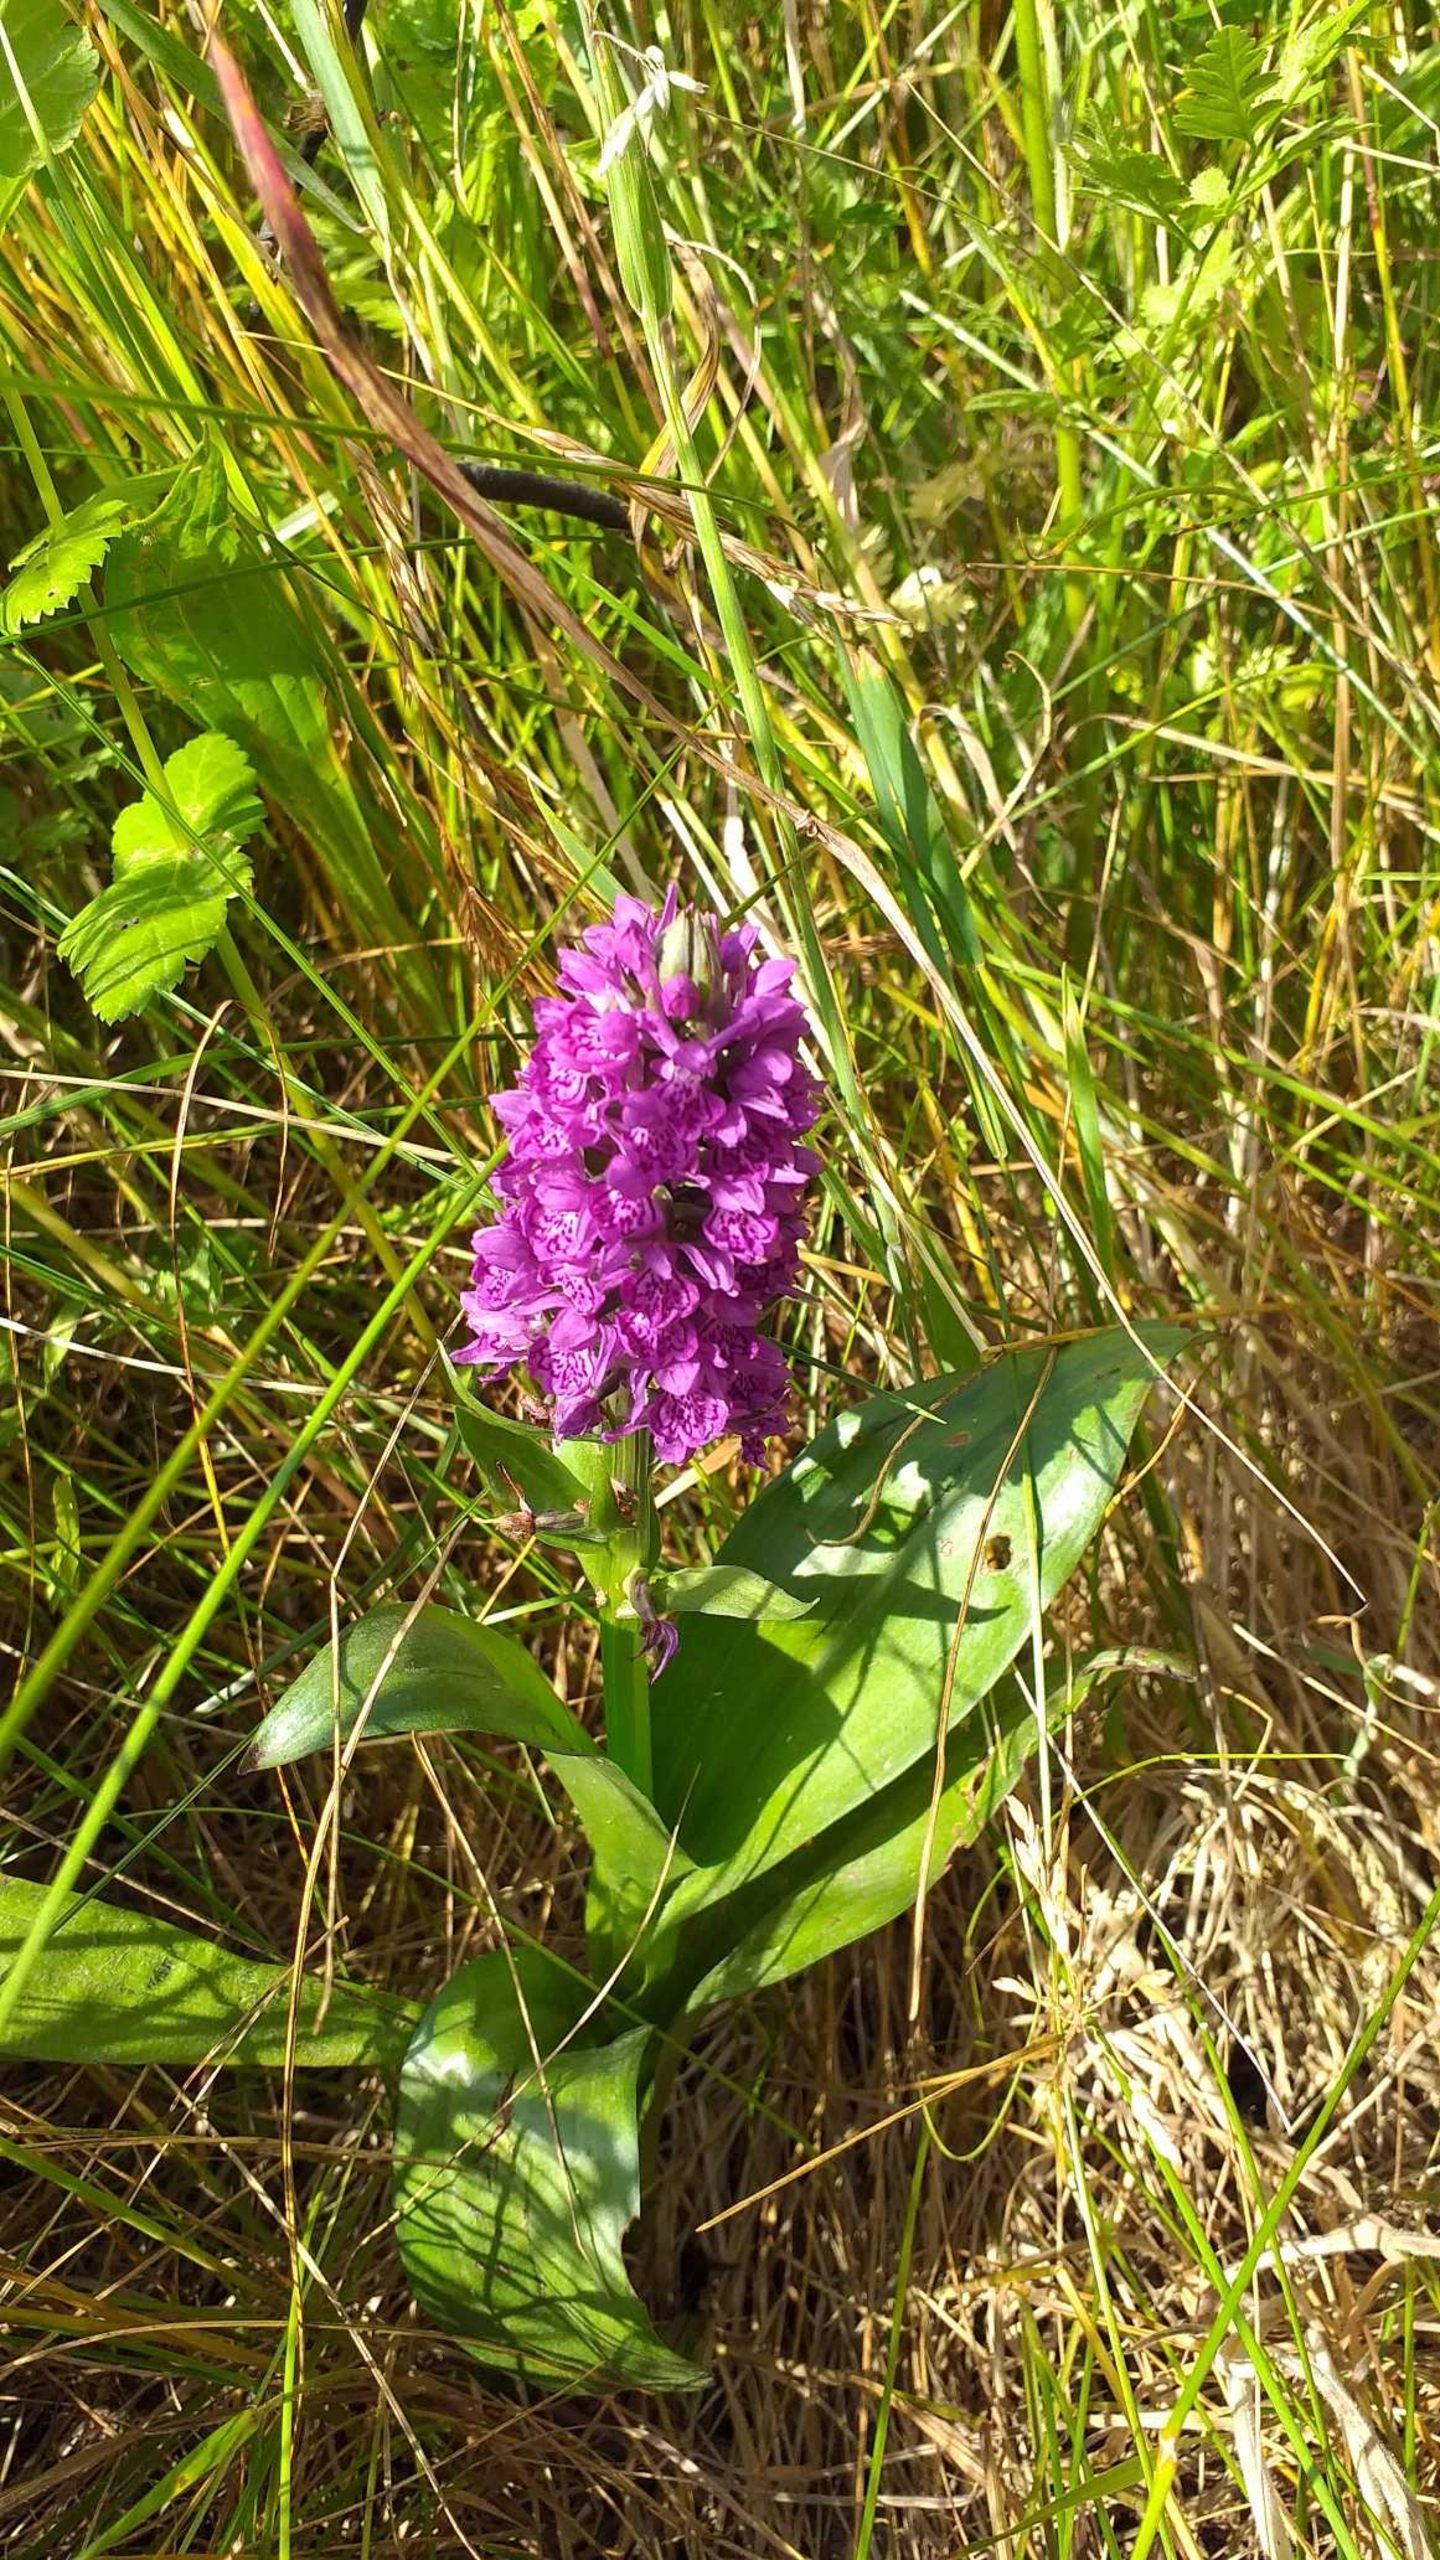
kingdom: Plantae
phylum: Tracheophyta
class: Liliopsida
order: Asparagales
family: Orchidaceae
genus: Dactylorhiza
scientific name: Dactylorhiza majalis
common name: Purpur-gøgeurt
